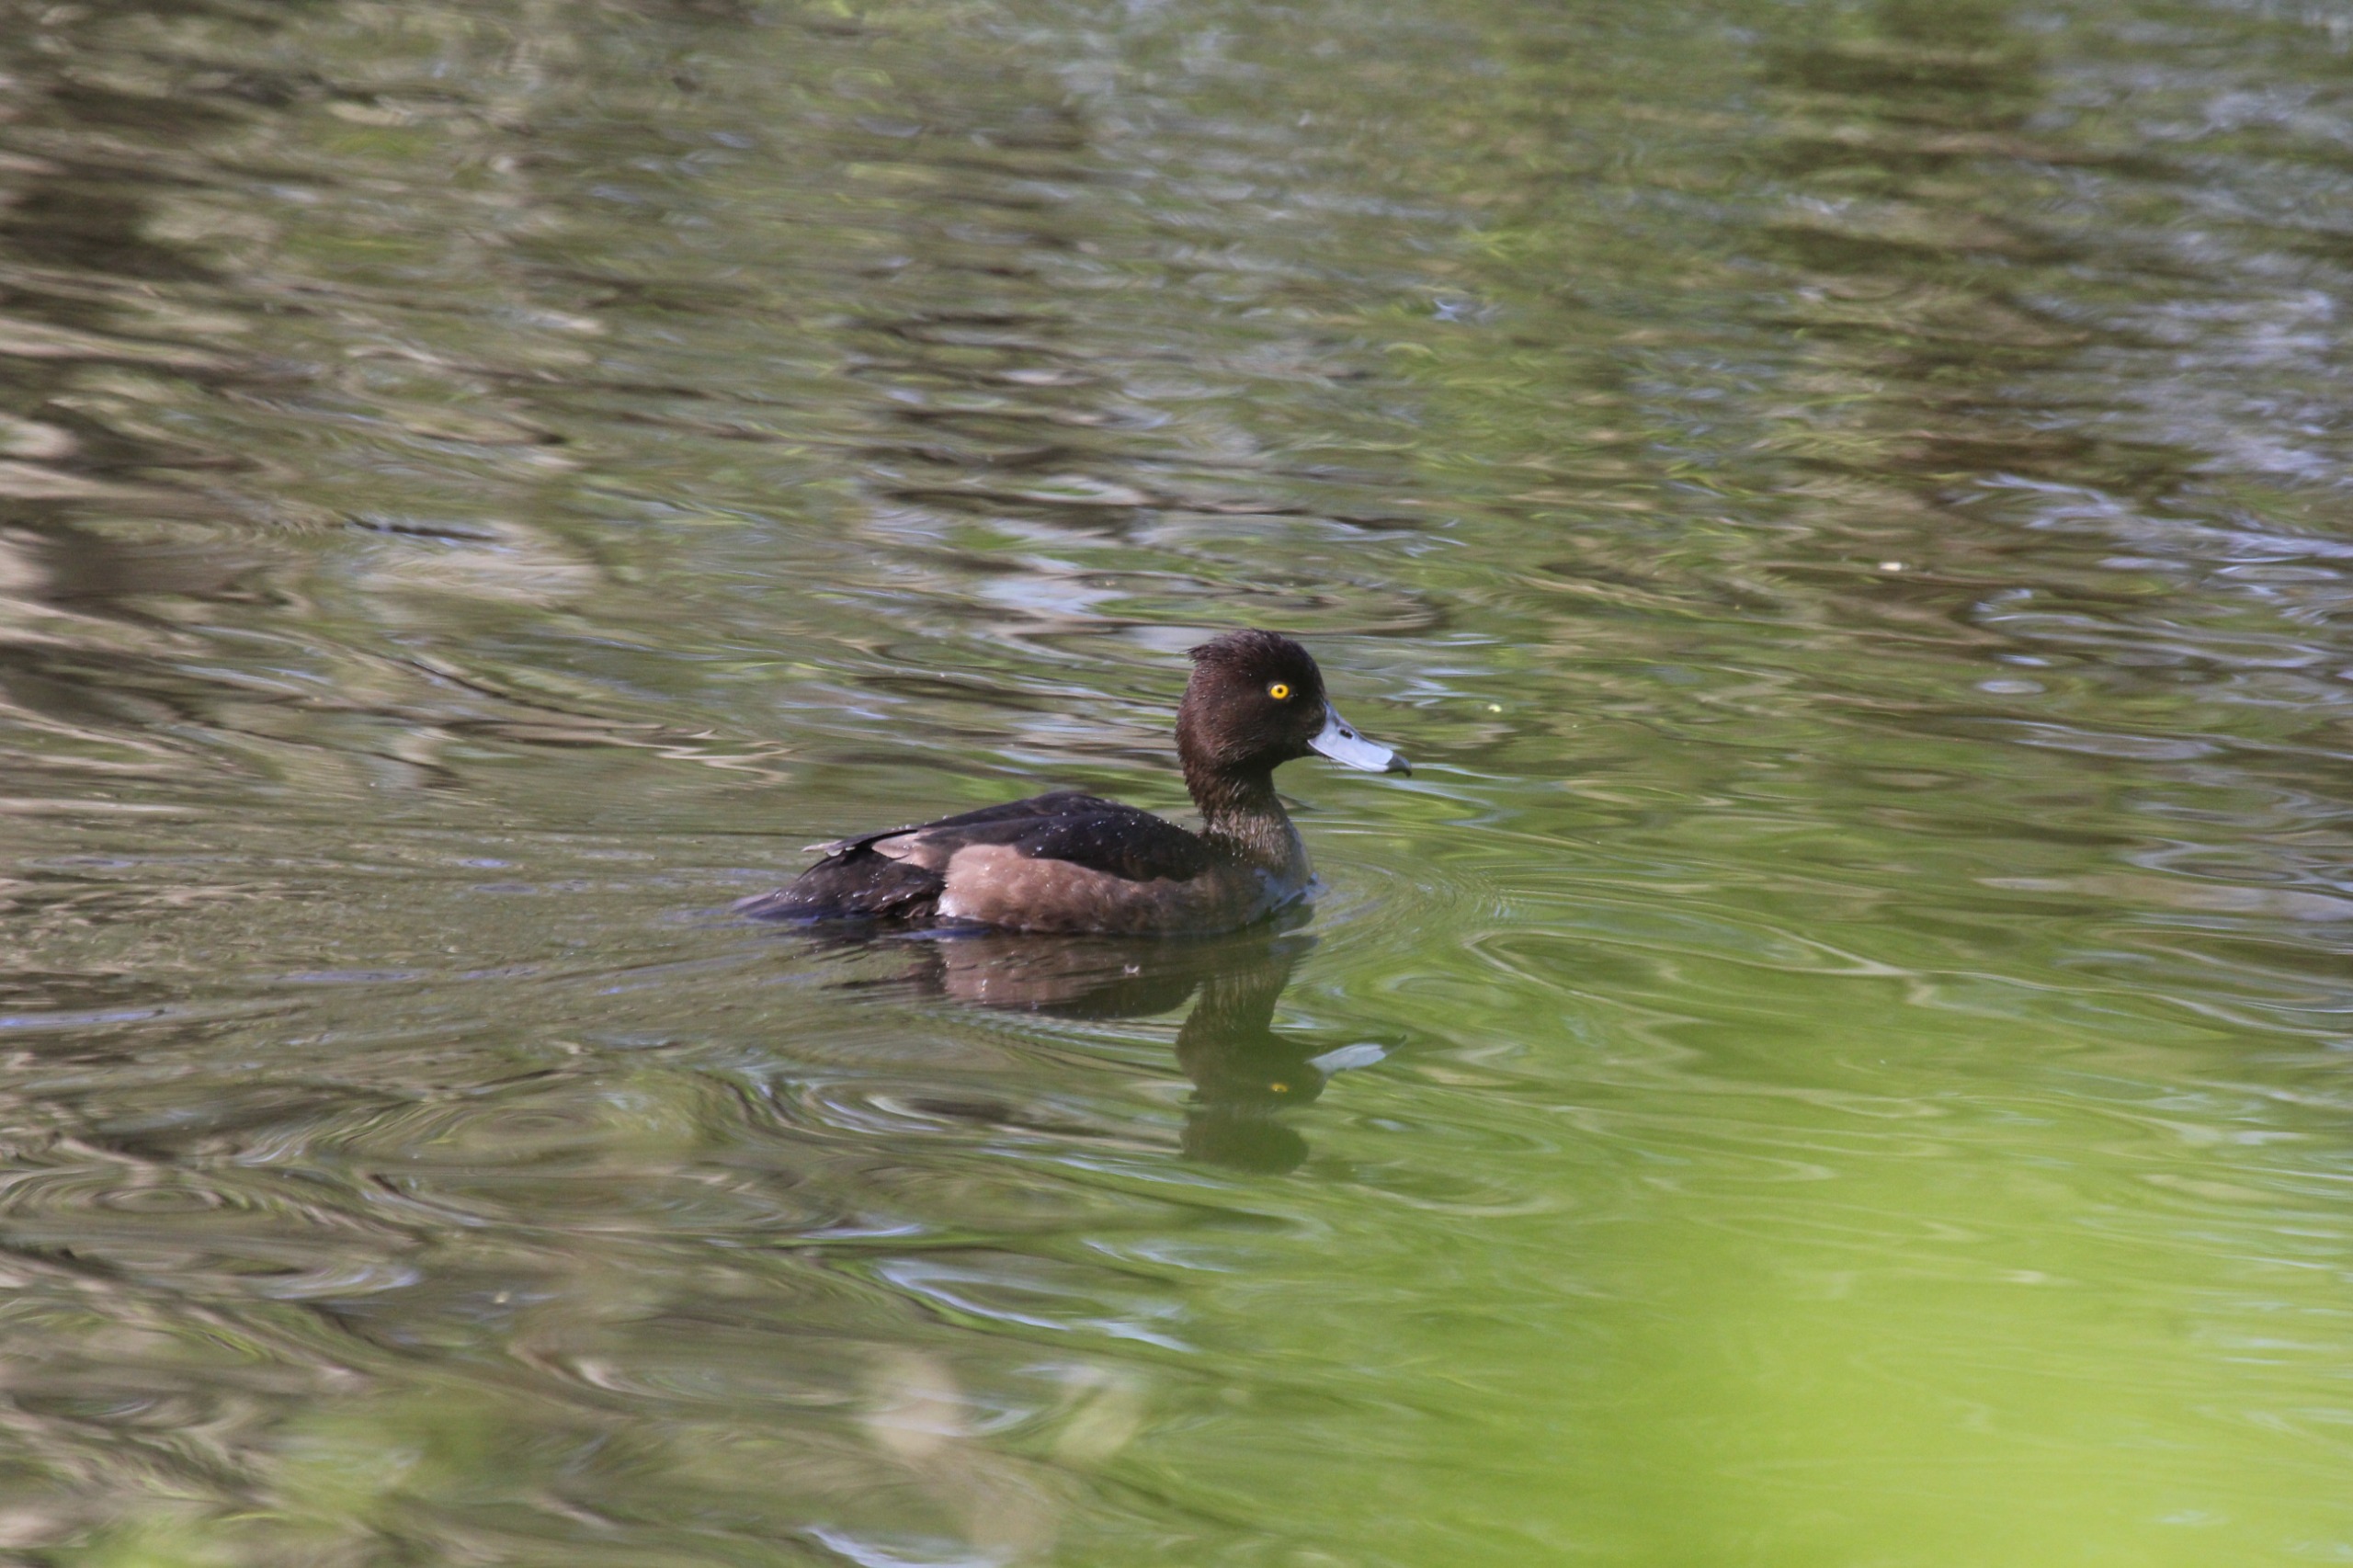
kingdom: Animalia
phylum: Chordata
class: Aves
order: Anseriformes
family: Anatidae
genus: Aythya
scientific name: Aythya fuligula
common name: Troldand
